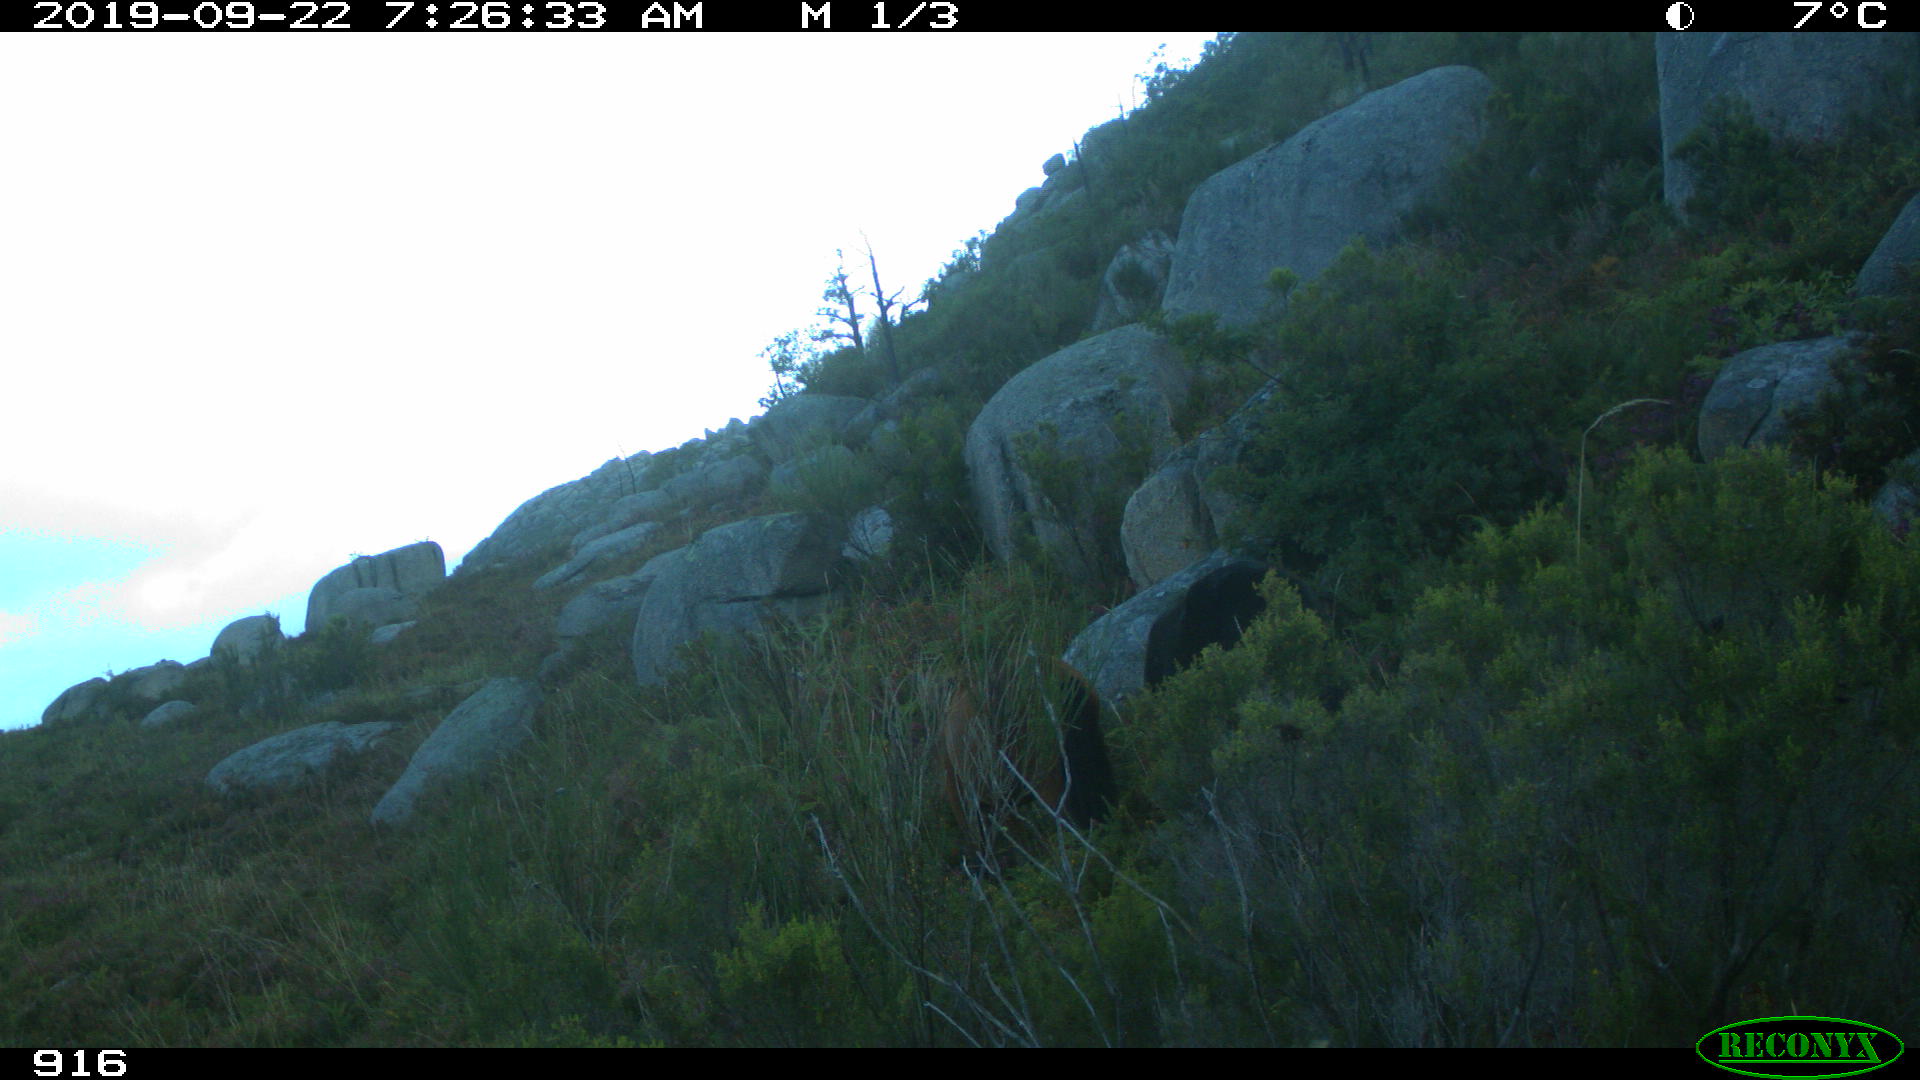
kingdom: Animalia
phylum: Chordata
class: Mammalia
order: Perissodactyla
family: Equidae
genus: Equus
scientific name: Equus caballus
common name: Horse
